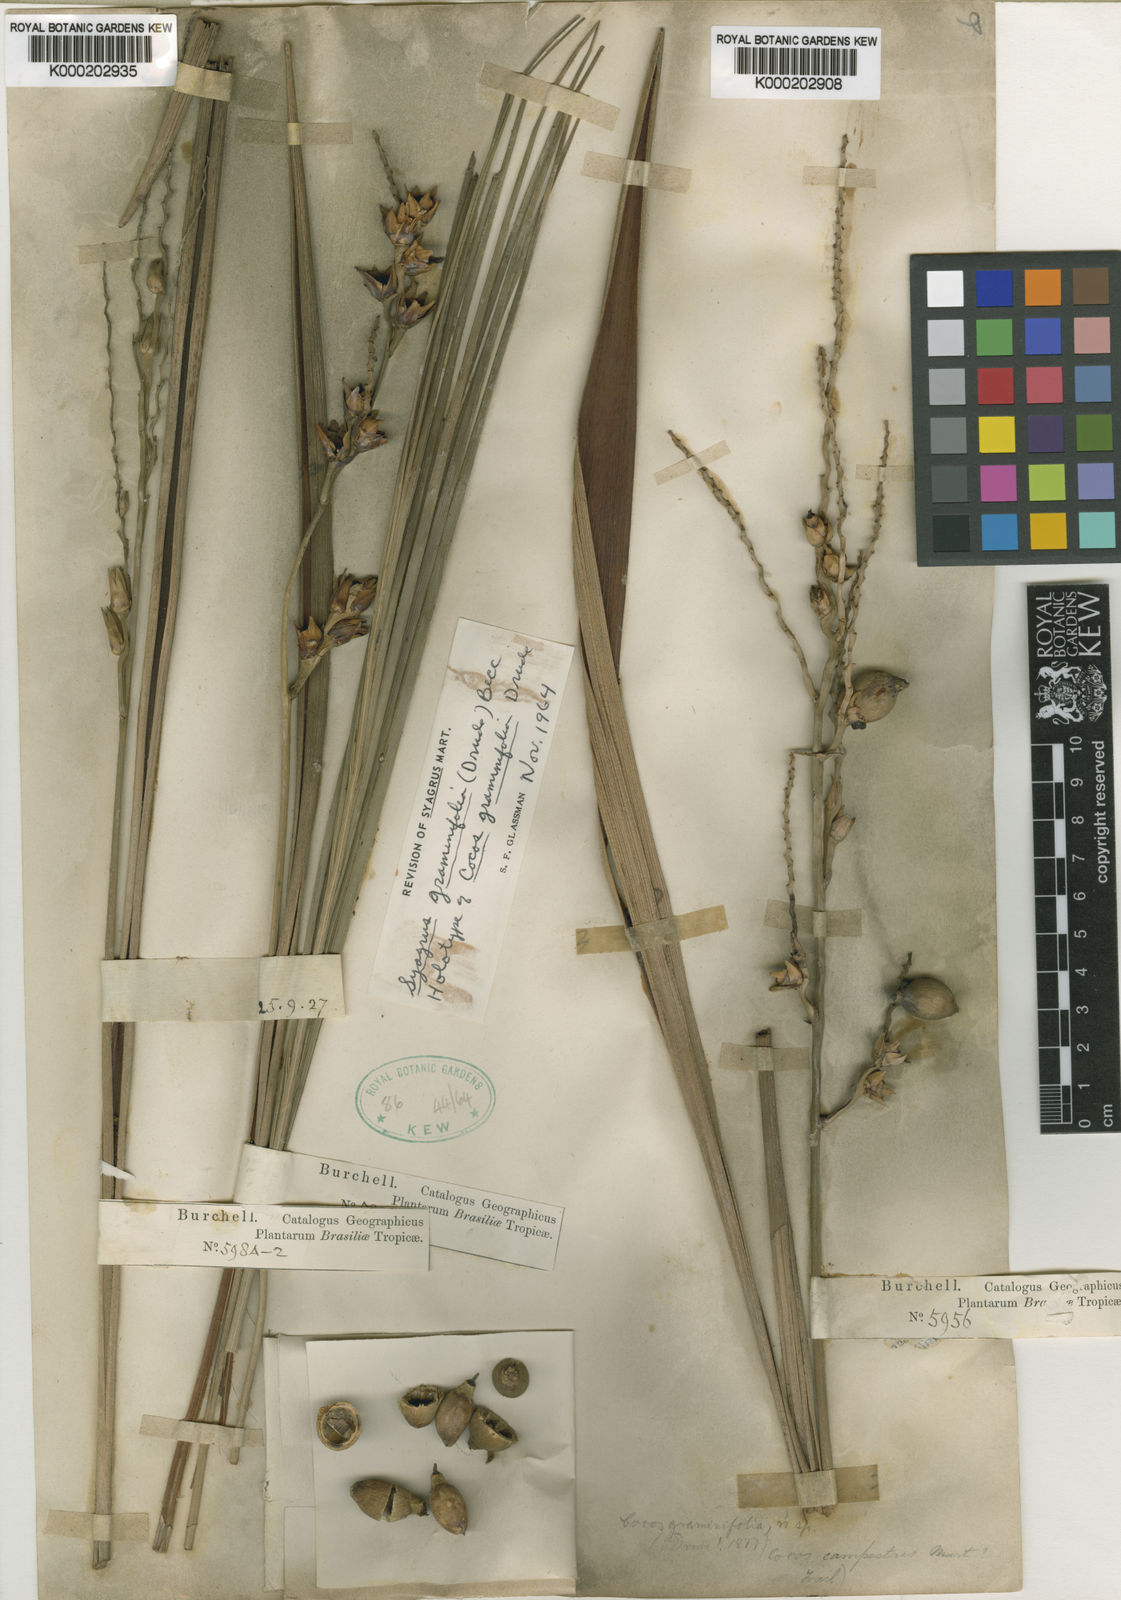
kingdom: Plantae
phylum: Tracheophyta
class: Liliopsida
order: Arecales
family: Arecaceae
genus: Syagrus
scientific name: Syagrus graminifolia
